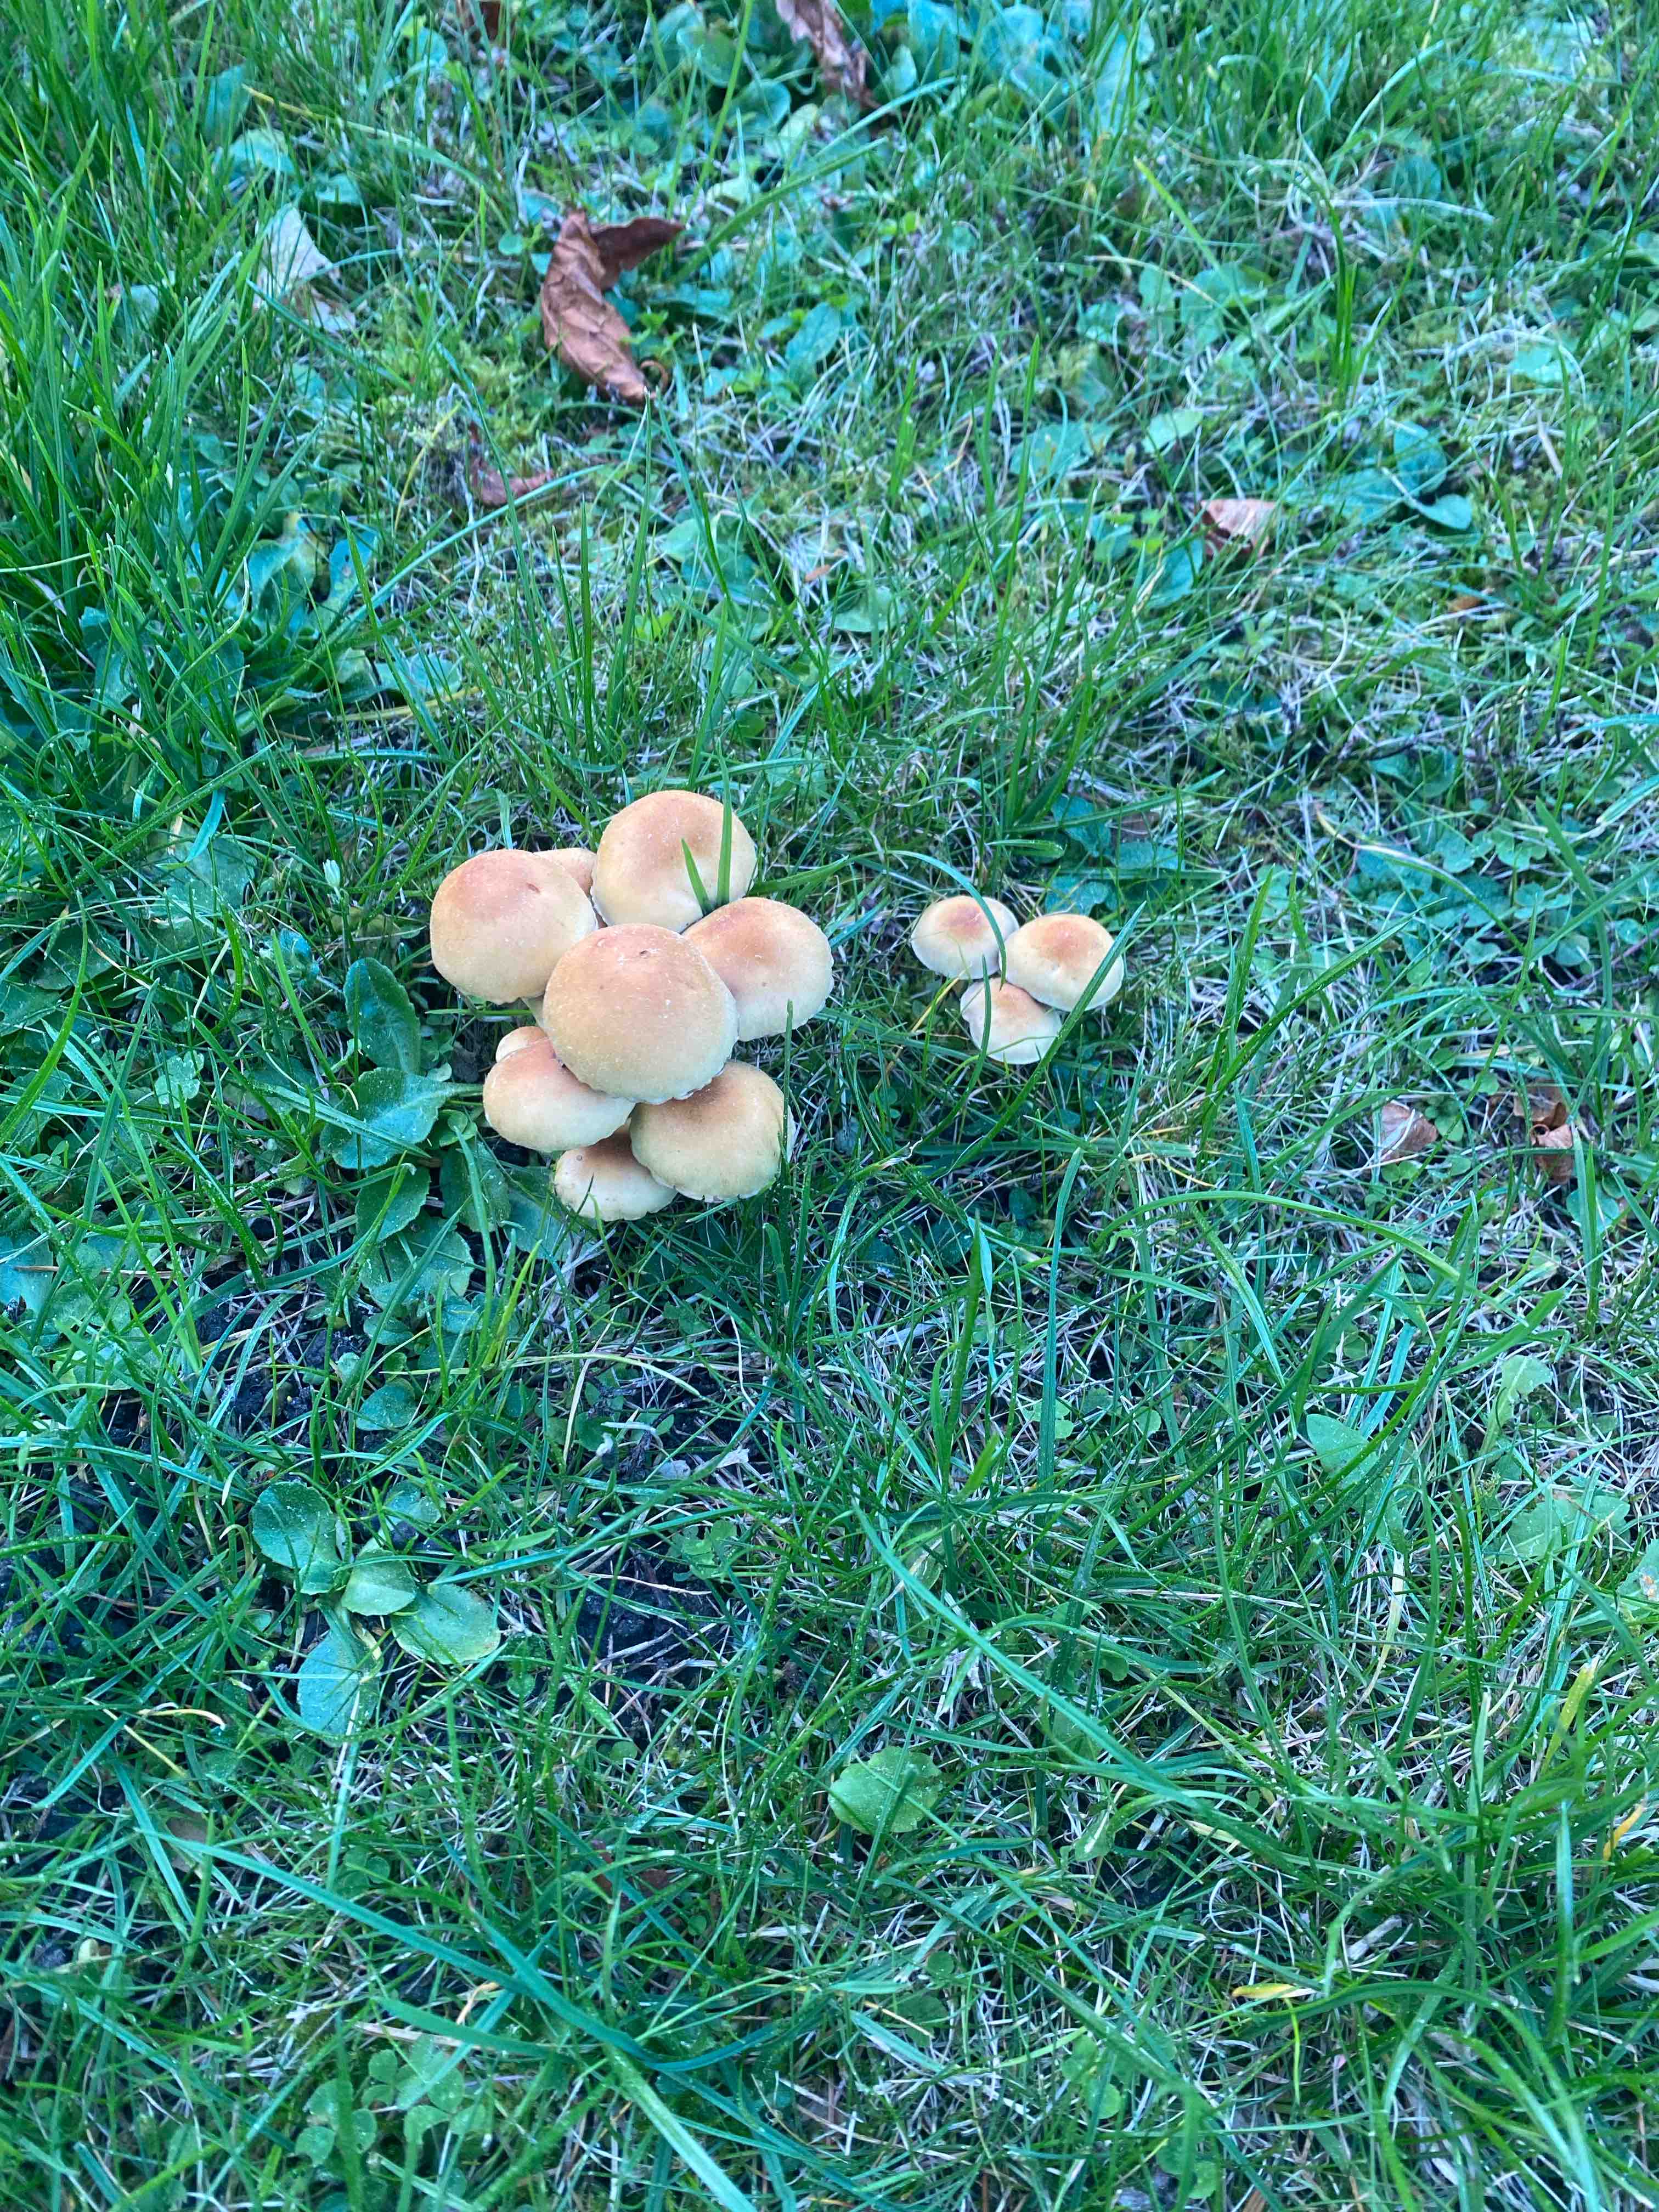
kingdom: Fungi
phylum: Basidiomycota
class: Agaricomycetes
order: Agaricales
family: Strophariaceae
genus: Hypholoma
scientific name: Hypholoma capnoides
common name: gran-svovlhat
